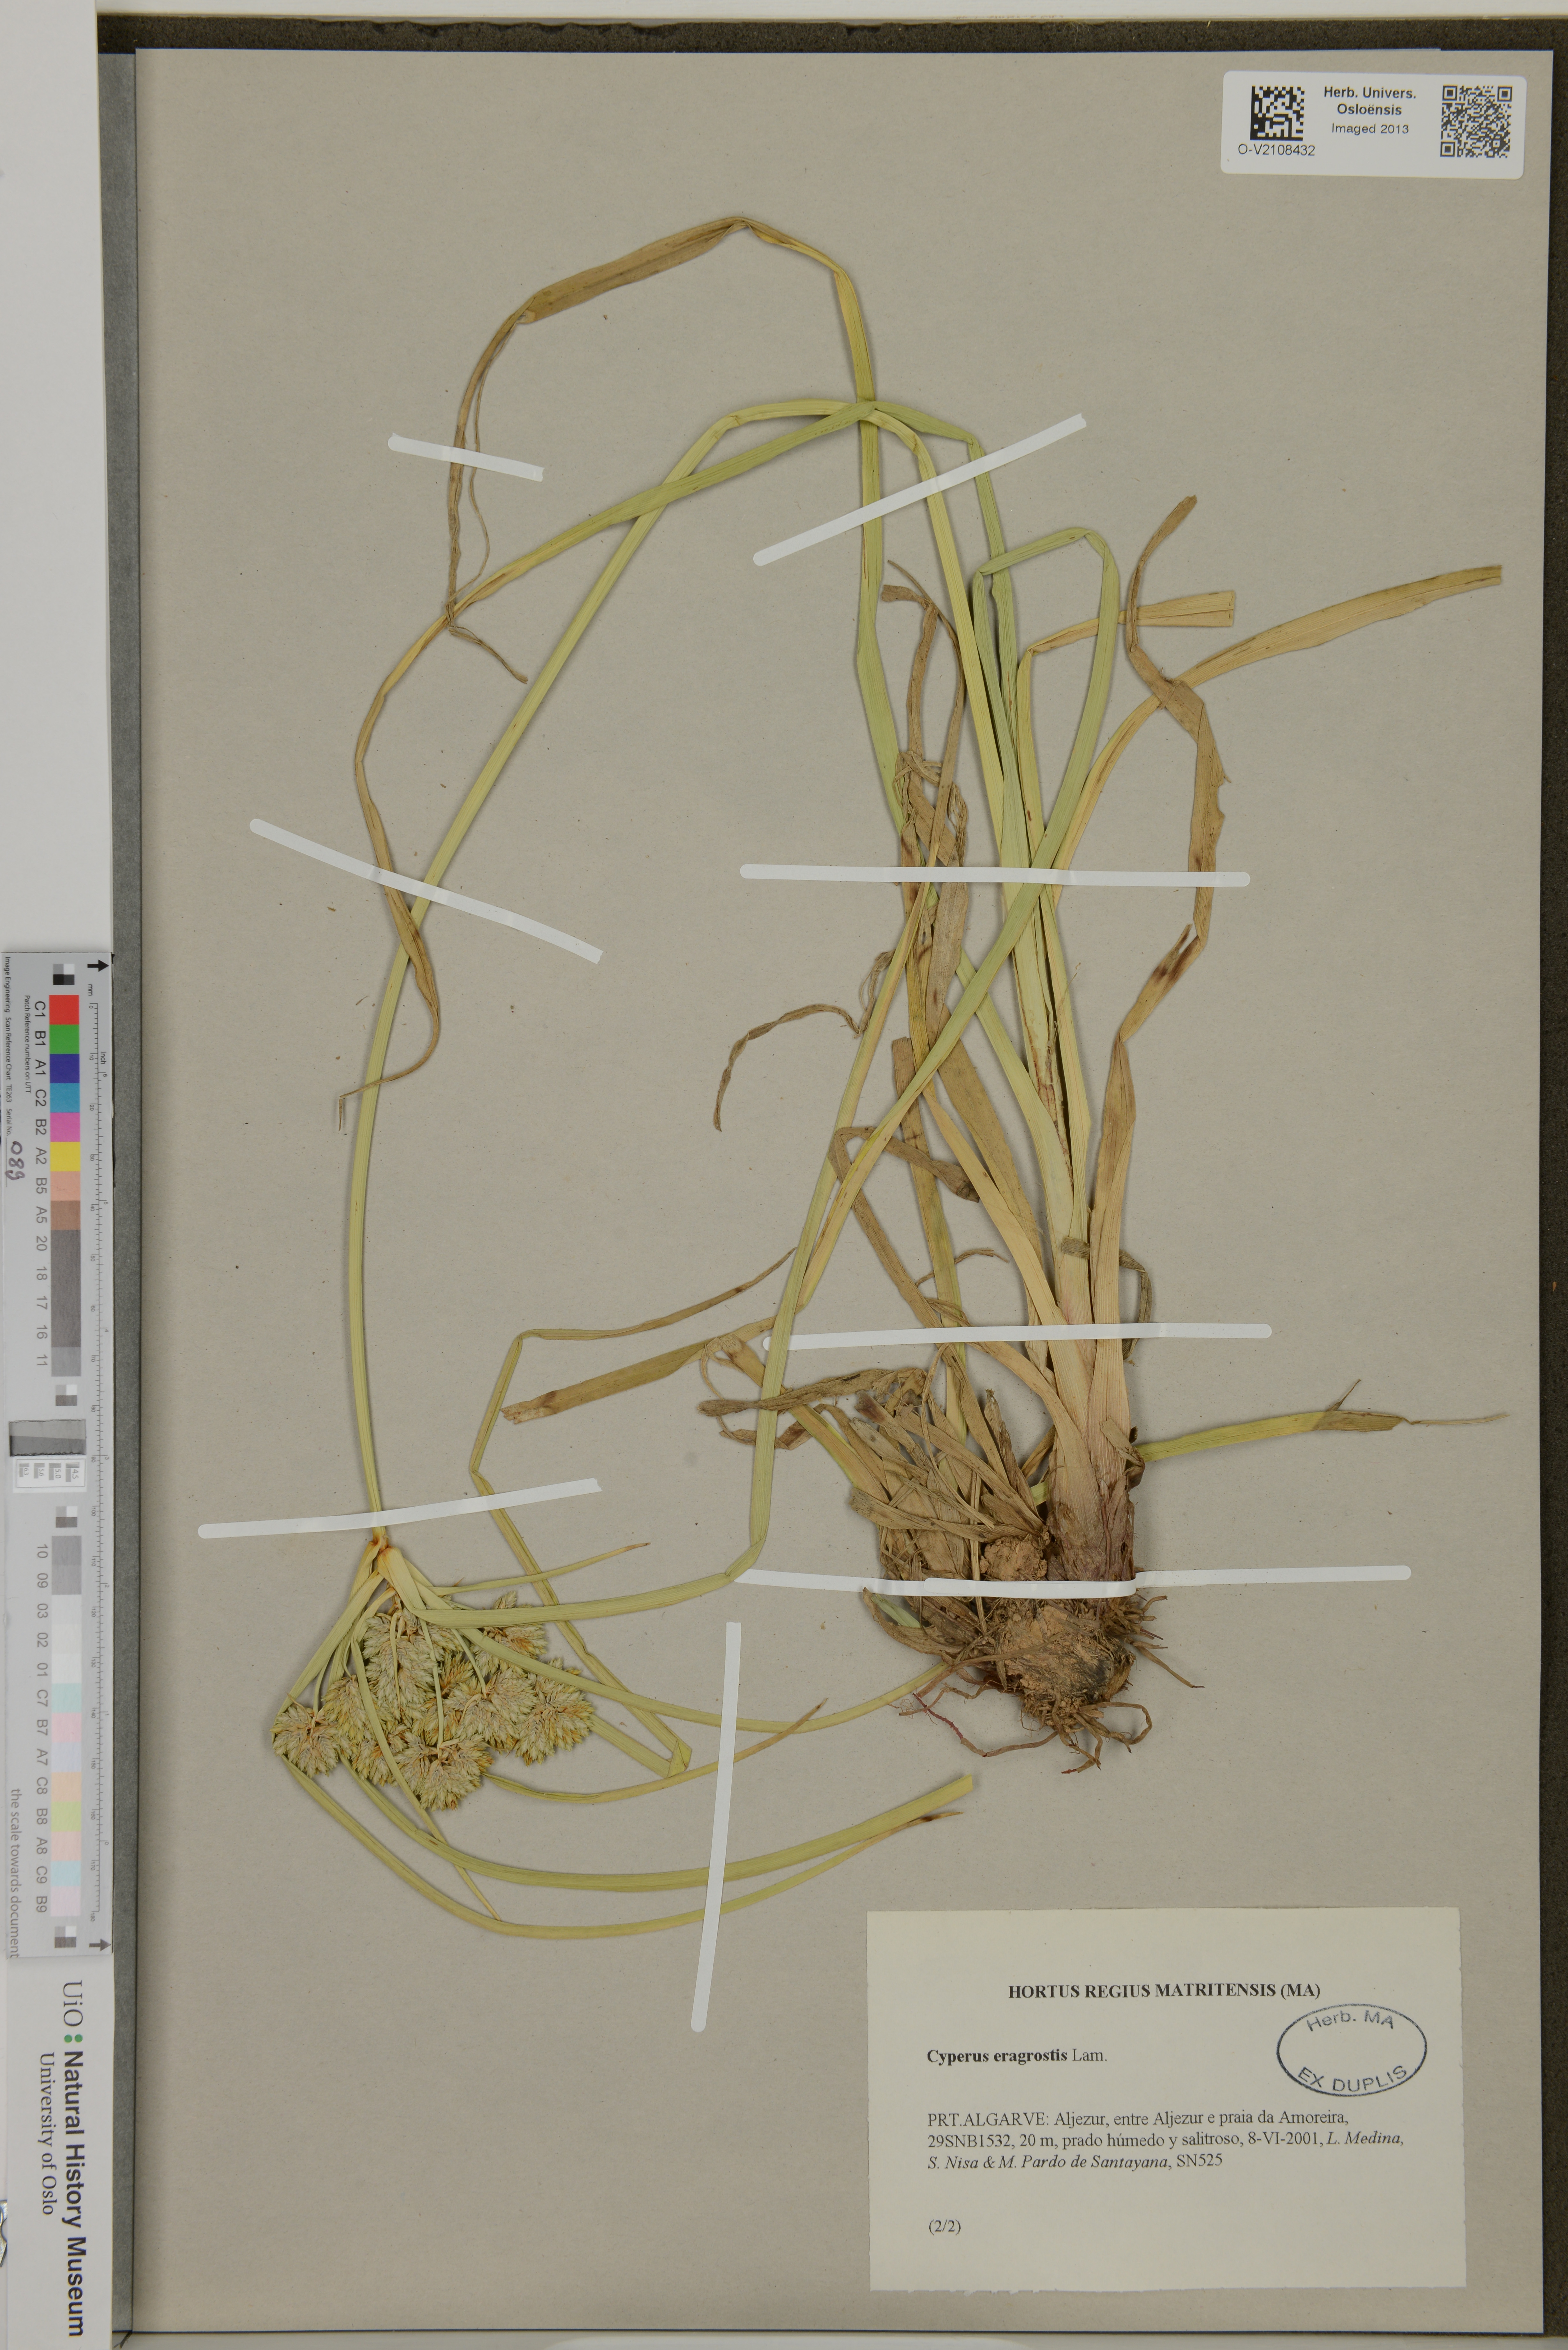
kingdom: Plantae
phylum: Tracheophyta
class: Liliopsida
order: Poales
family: Cyperaceae
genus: Cyperus
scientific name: Cyperus eragrostis
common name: Tall flatsedge
